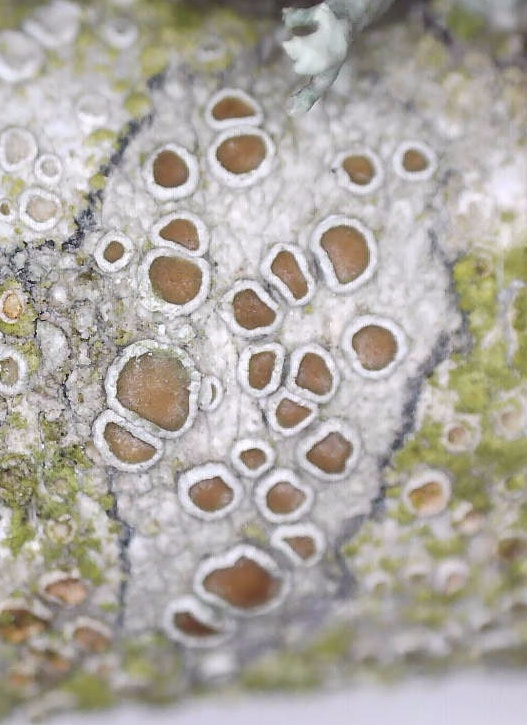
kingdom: Fungi
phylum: Ascomycota
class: Lecanoromycetes
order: Lecanorales
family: Lecanoraceae
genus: Lecanora
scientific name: Lecanora chlarotera
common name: brun kantskivelav
